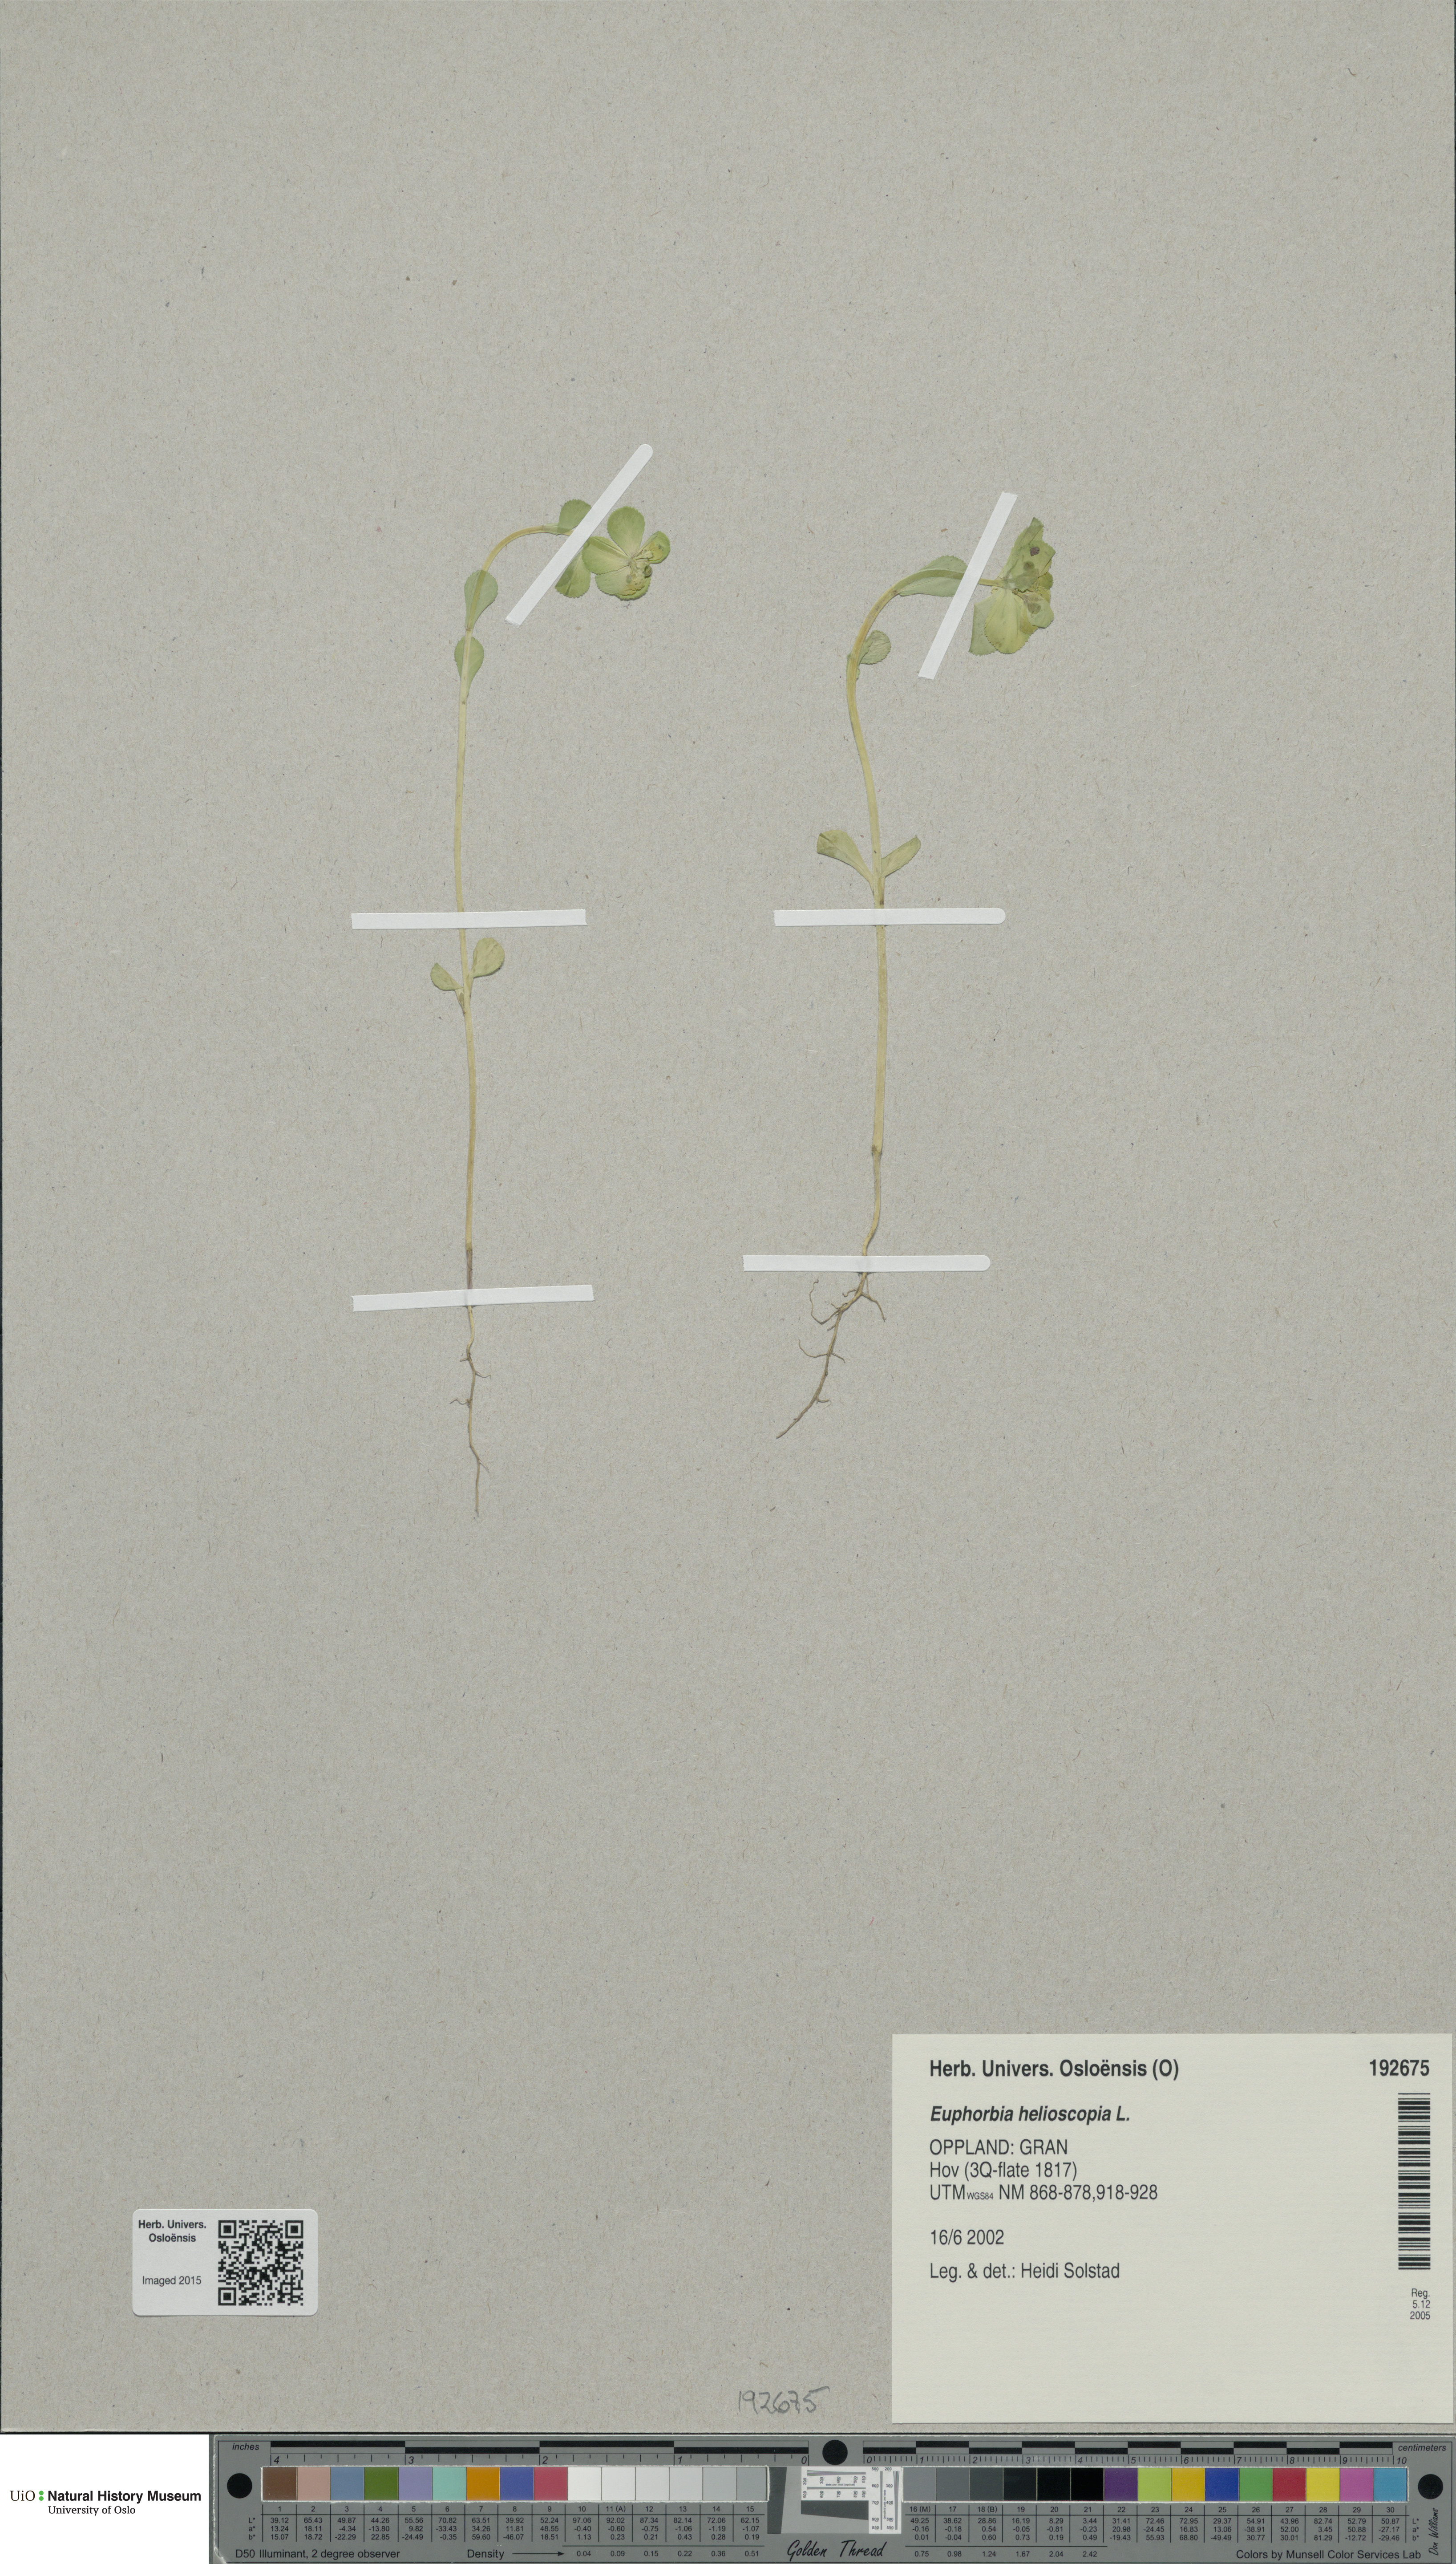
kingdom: Plantae
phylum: Tracheophyta
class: Magnoliopsida
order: Malpighiales
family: Euphorbiaceae
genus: Euphorbia
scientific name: Euphorbia helioscopia
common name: Sun spurge
